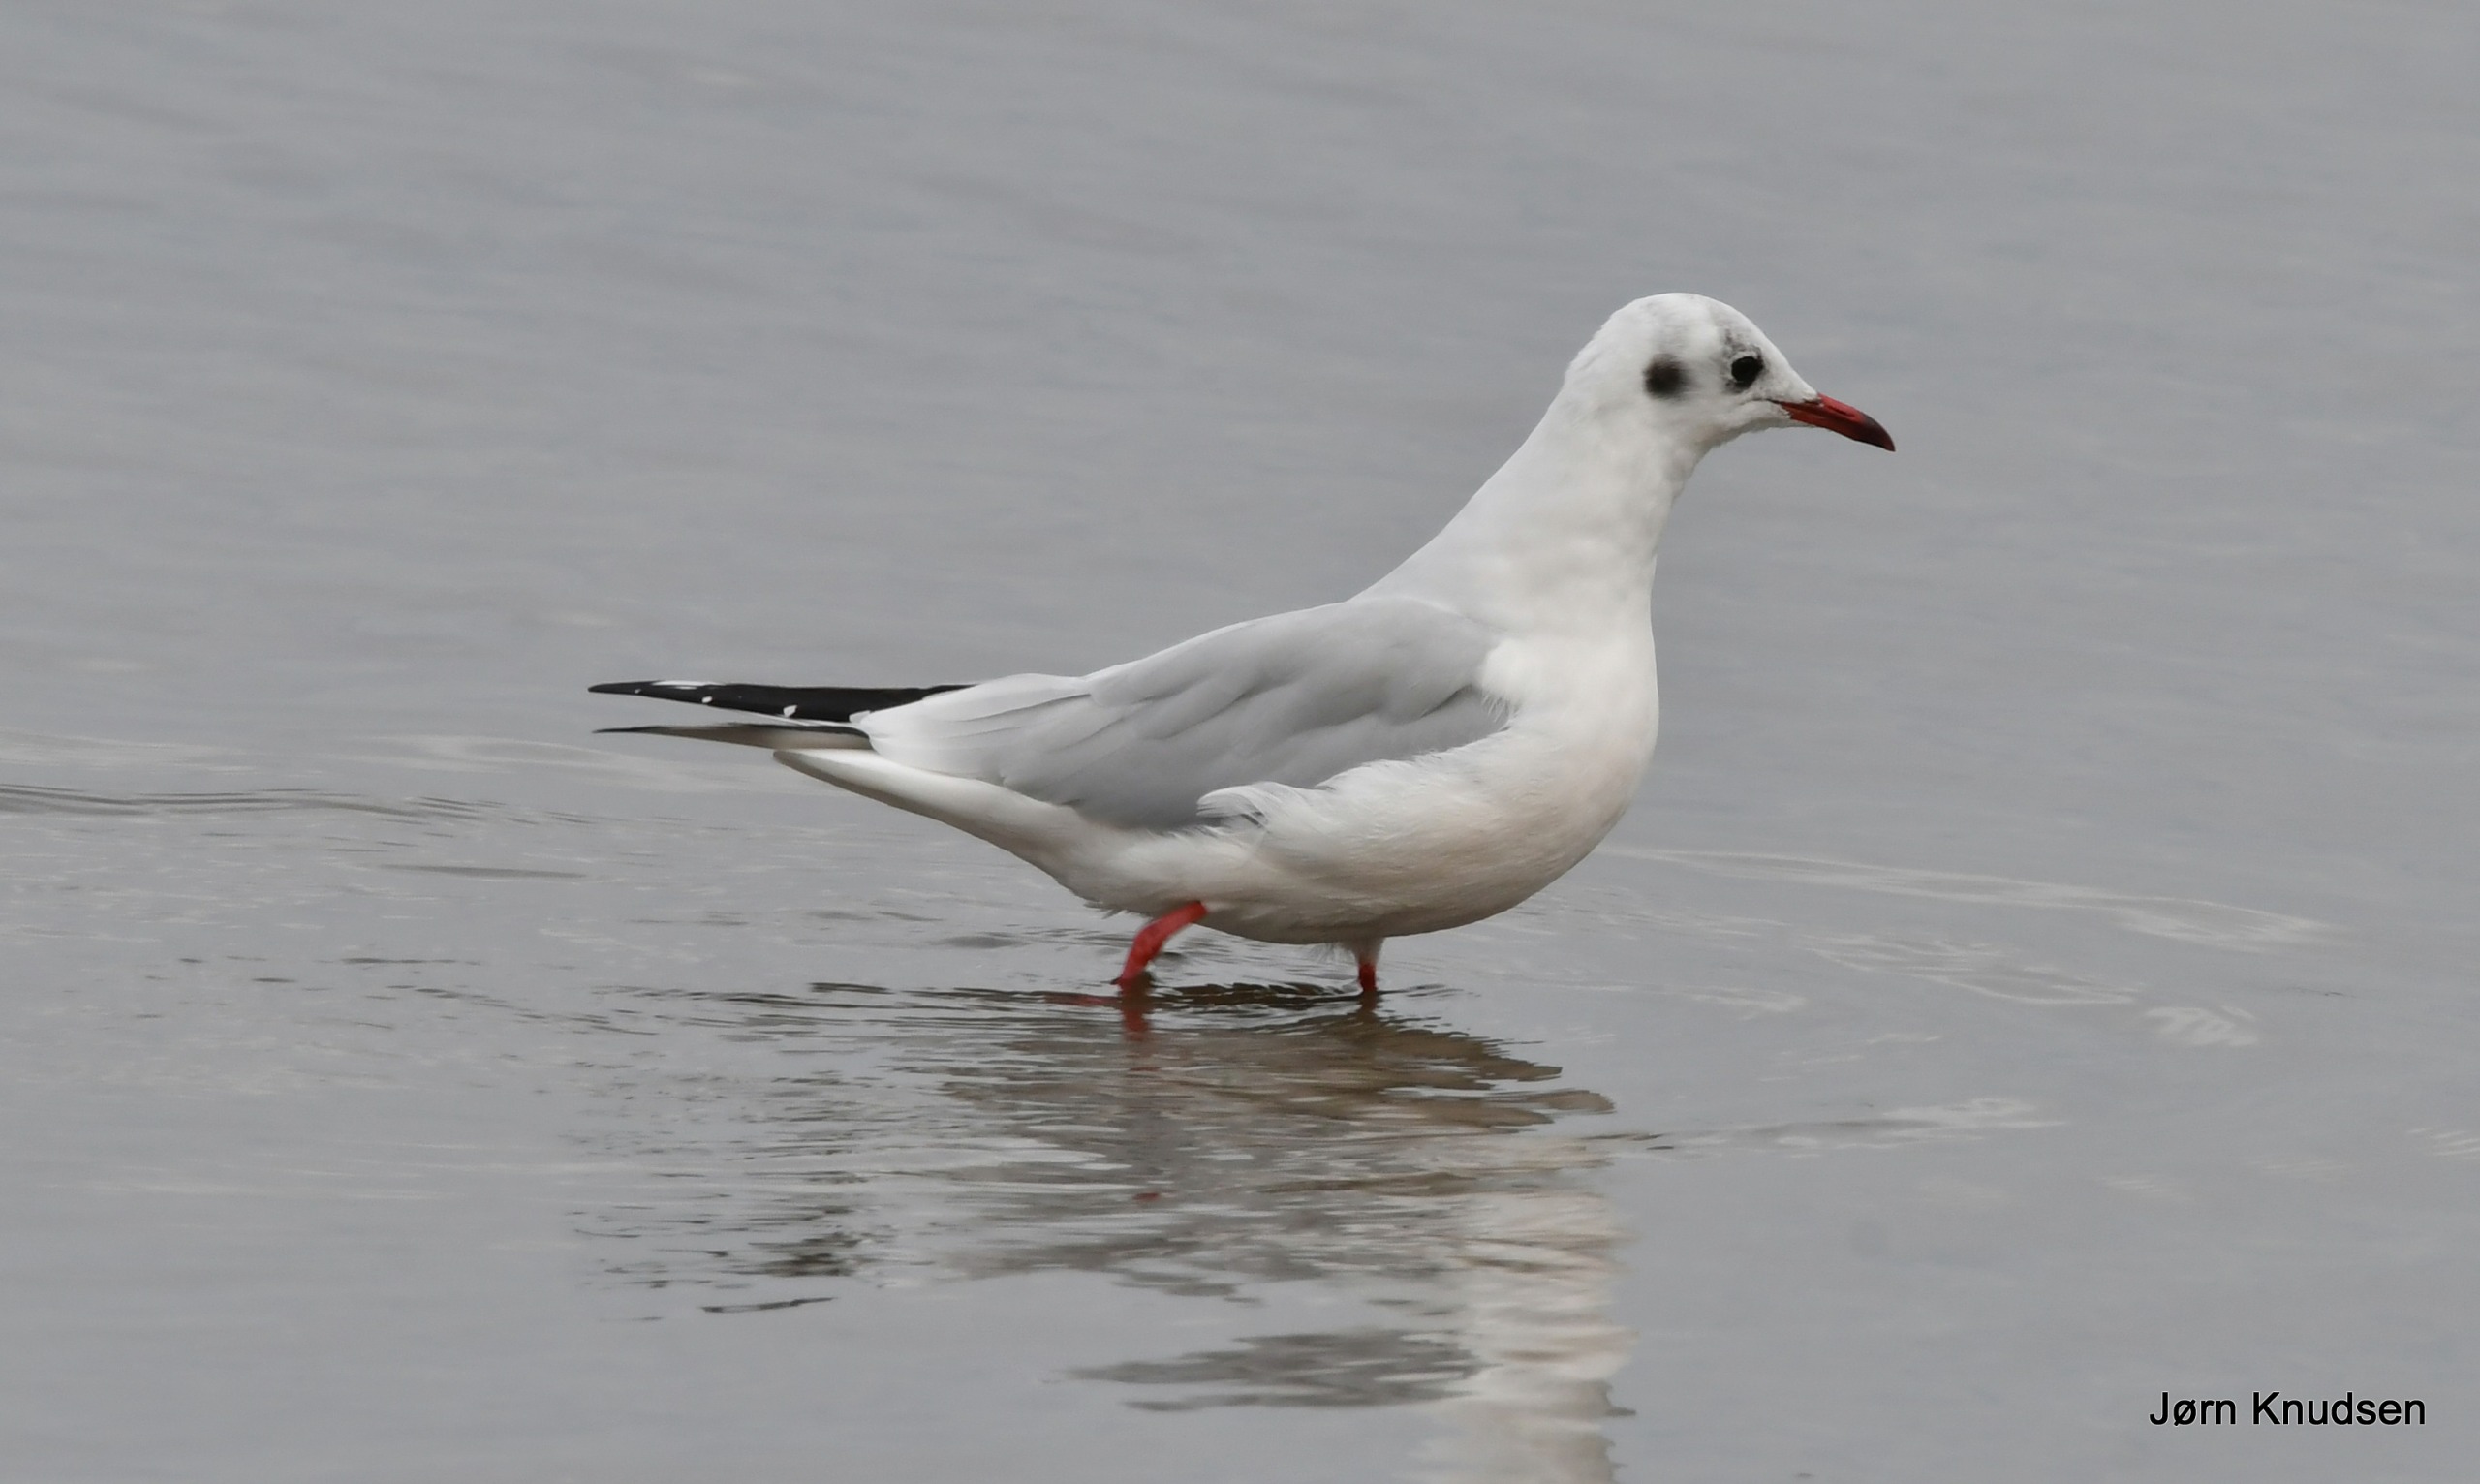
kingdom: Animalia
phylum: Chordata
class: Aves
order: Charadriiformes
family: Laridae
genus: Chroicocephalus
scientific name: Chroicocephalus ridibundus
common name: Hættemåge
